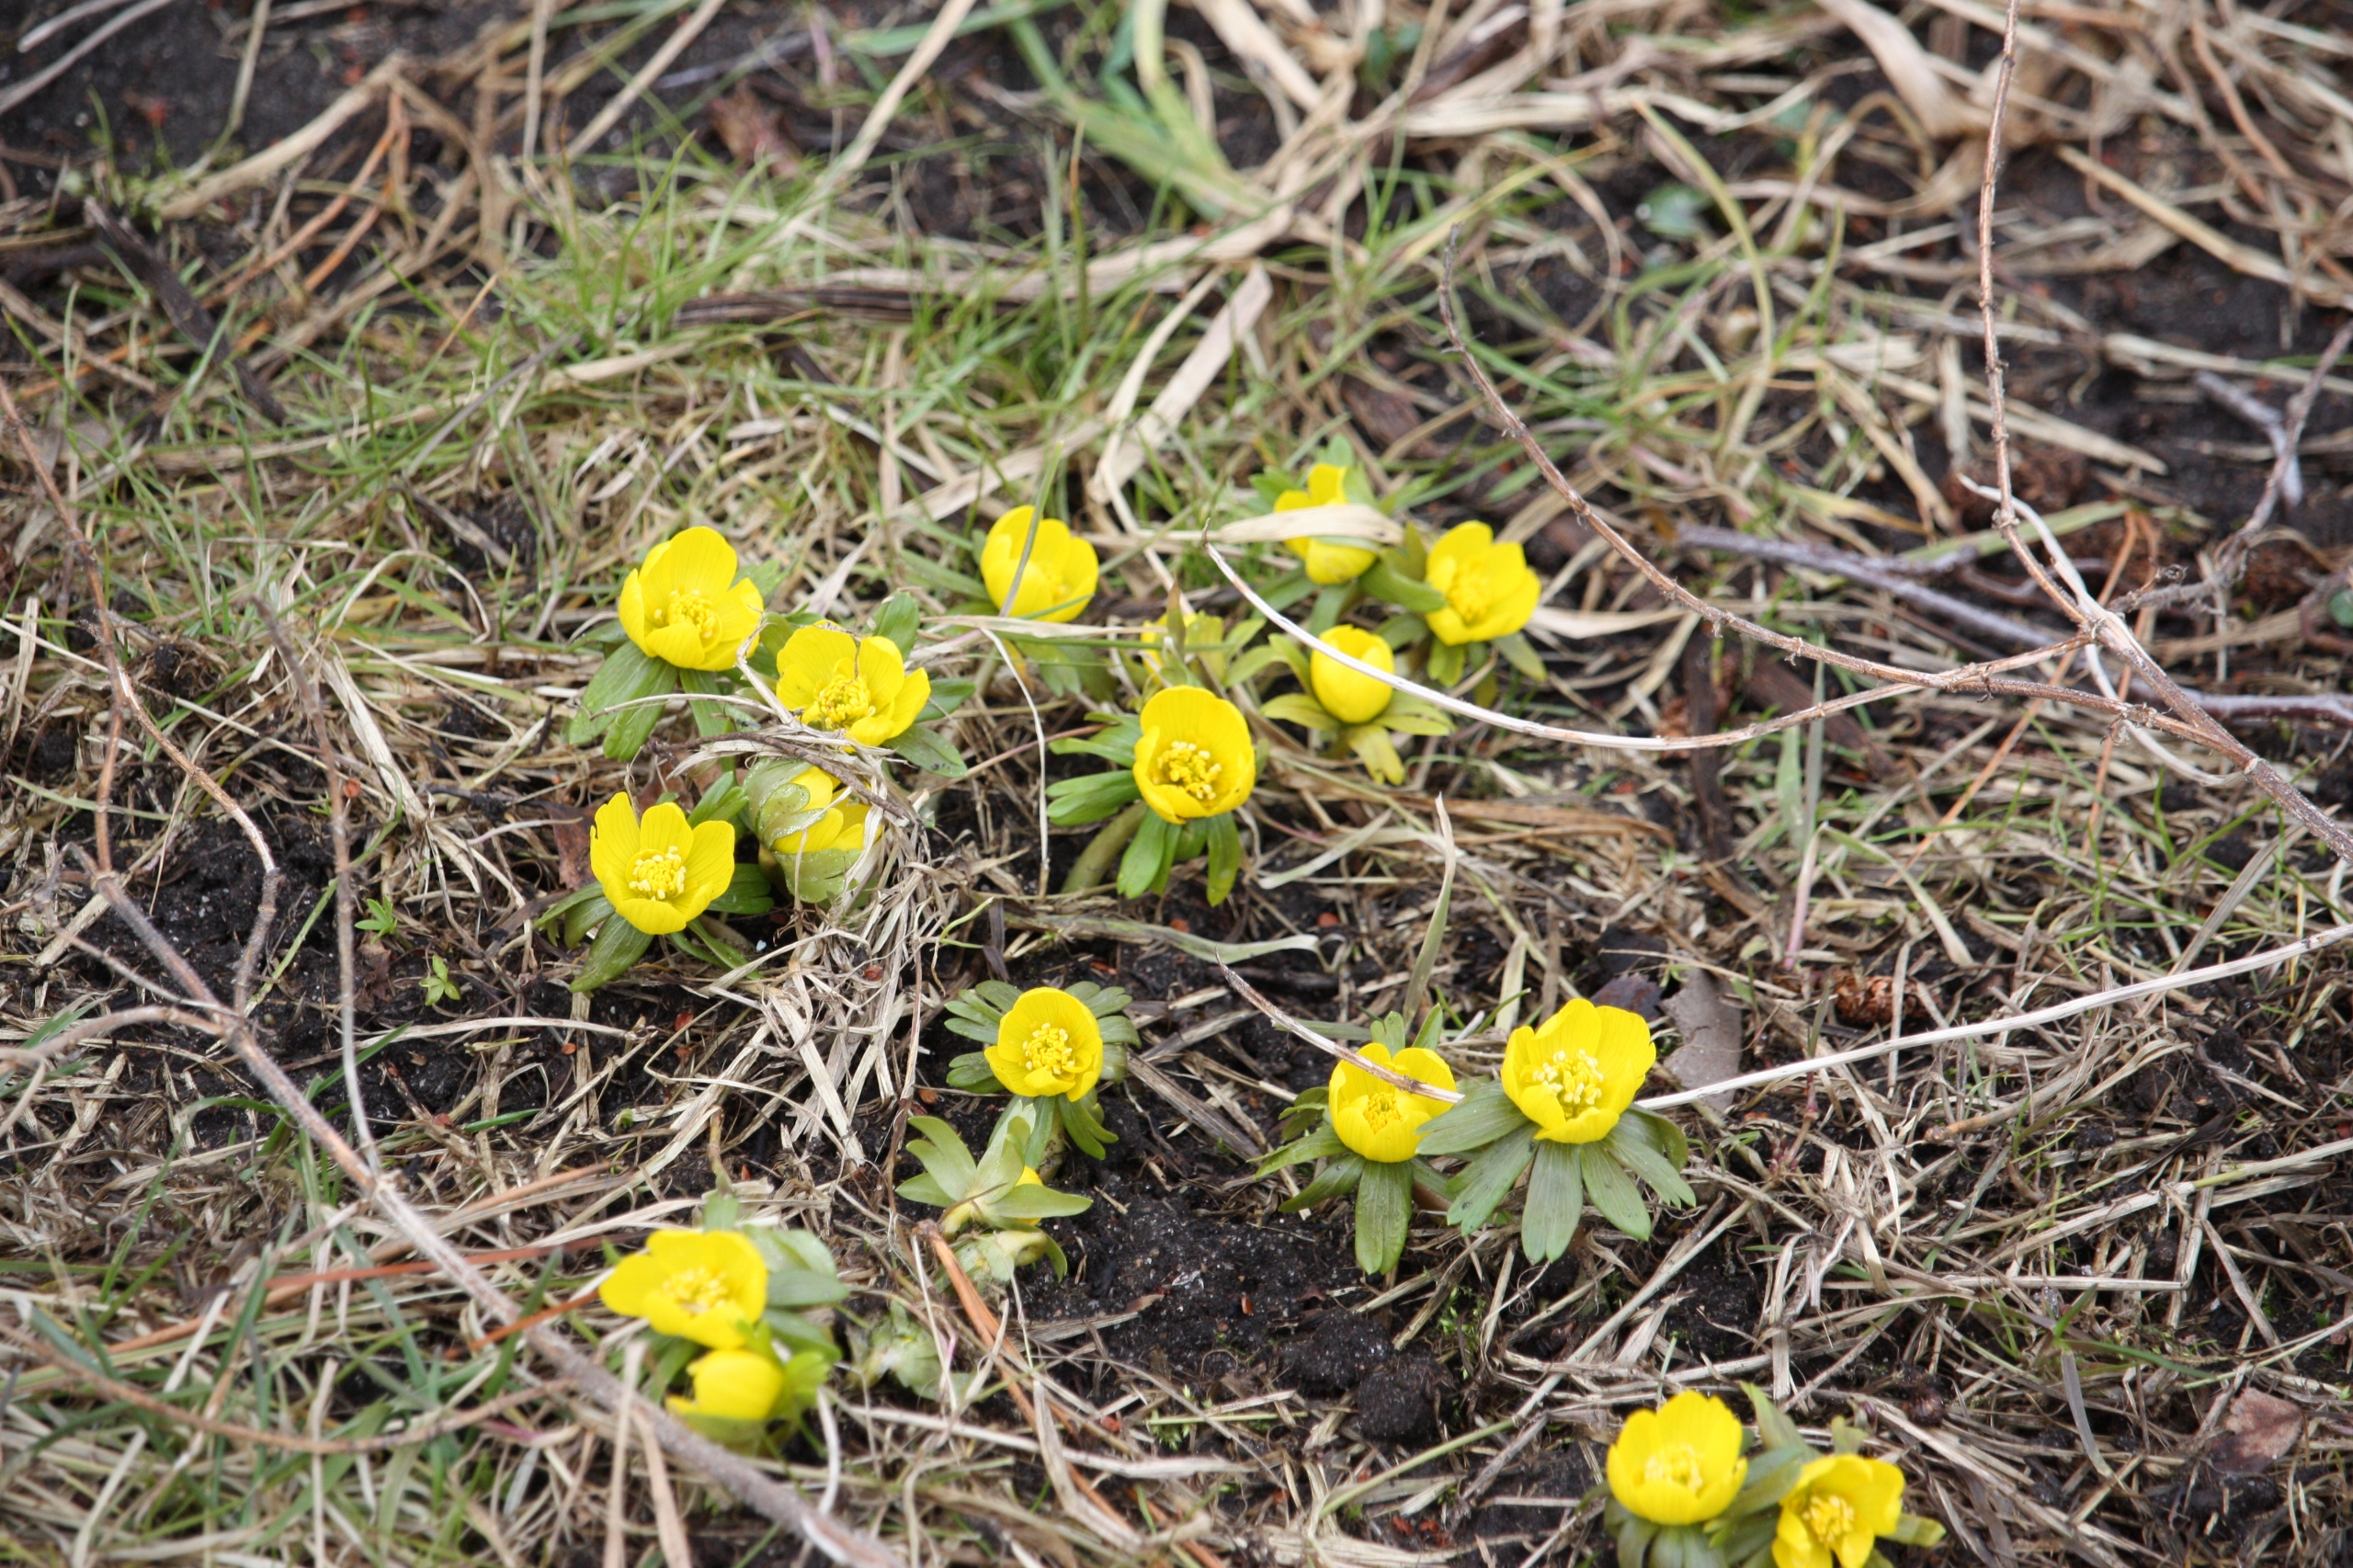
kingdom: Plantae
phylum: Tracheophyta
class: Magnoliopsida
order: Ranunculales
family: Ranunculaceae
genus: Eranthis
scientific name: Eranthis hyemalis
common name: Erantis
